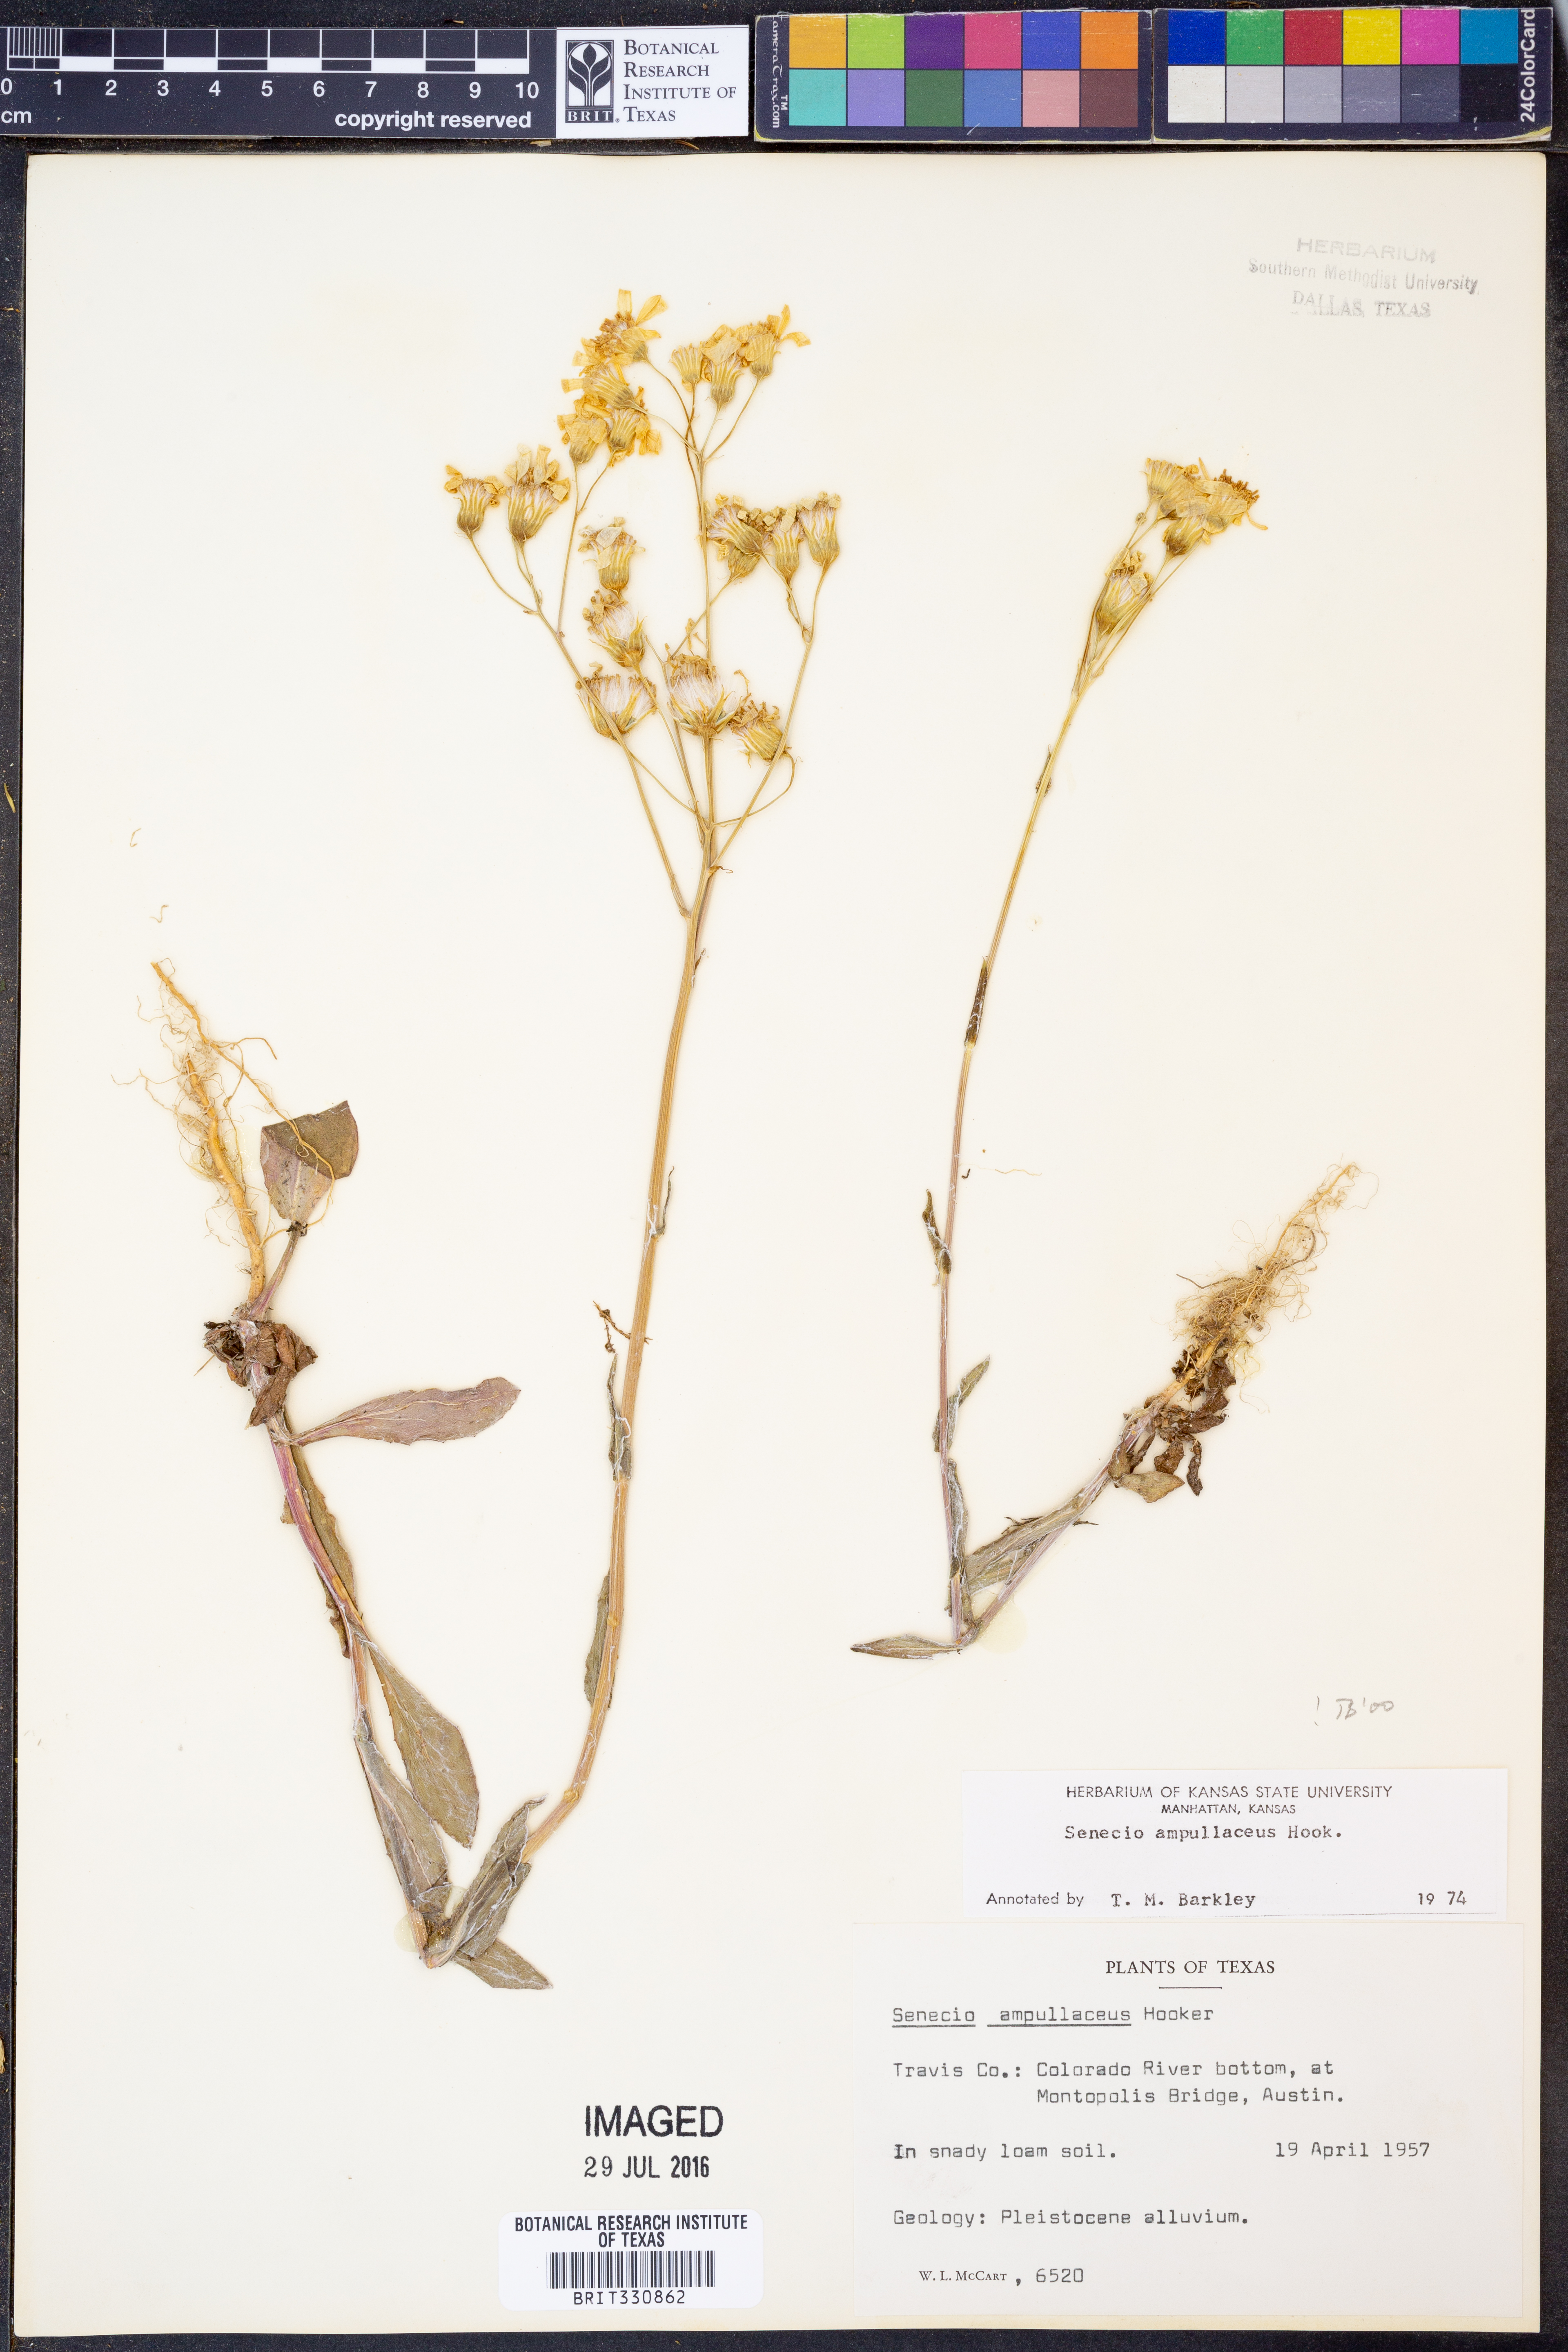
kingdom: Plantae
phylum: Tracheophyta
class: Magnoliopsida
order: Asterales
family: Asteraceae
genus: Senecio
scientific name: Senecio ampullaceus
